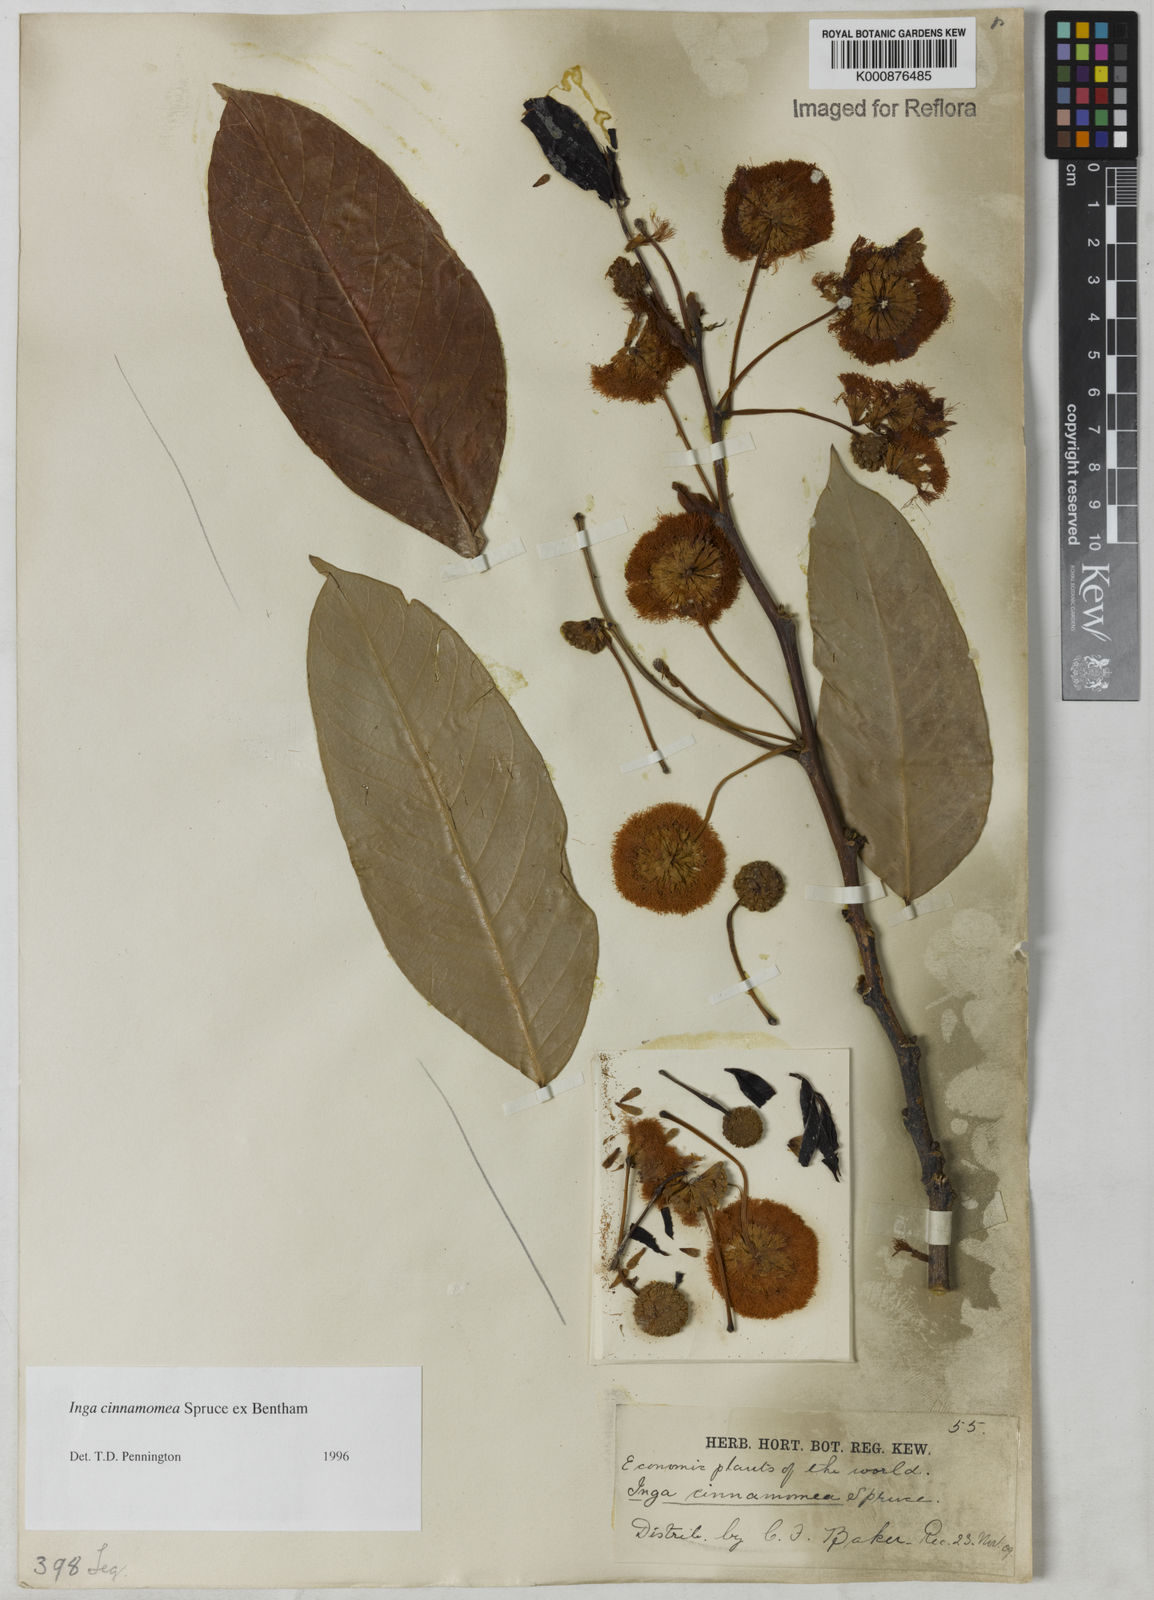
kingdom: Plantae
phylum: Tracheophyta
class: Magnoliopsida
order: Fabales
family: Fabaceae
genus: Inga
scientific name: Inga cinnamomea
